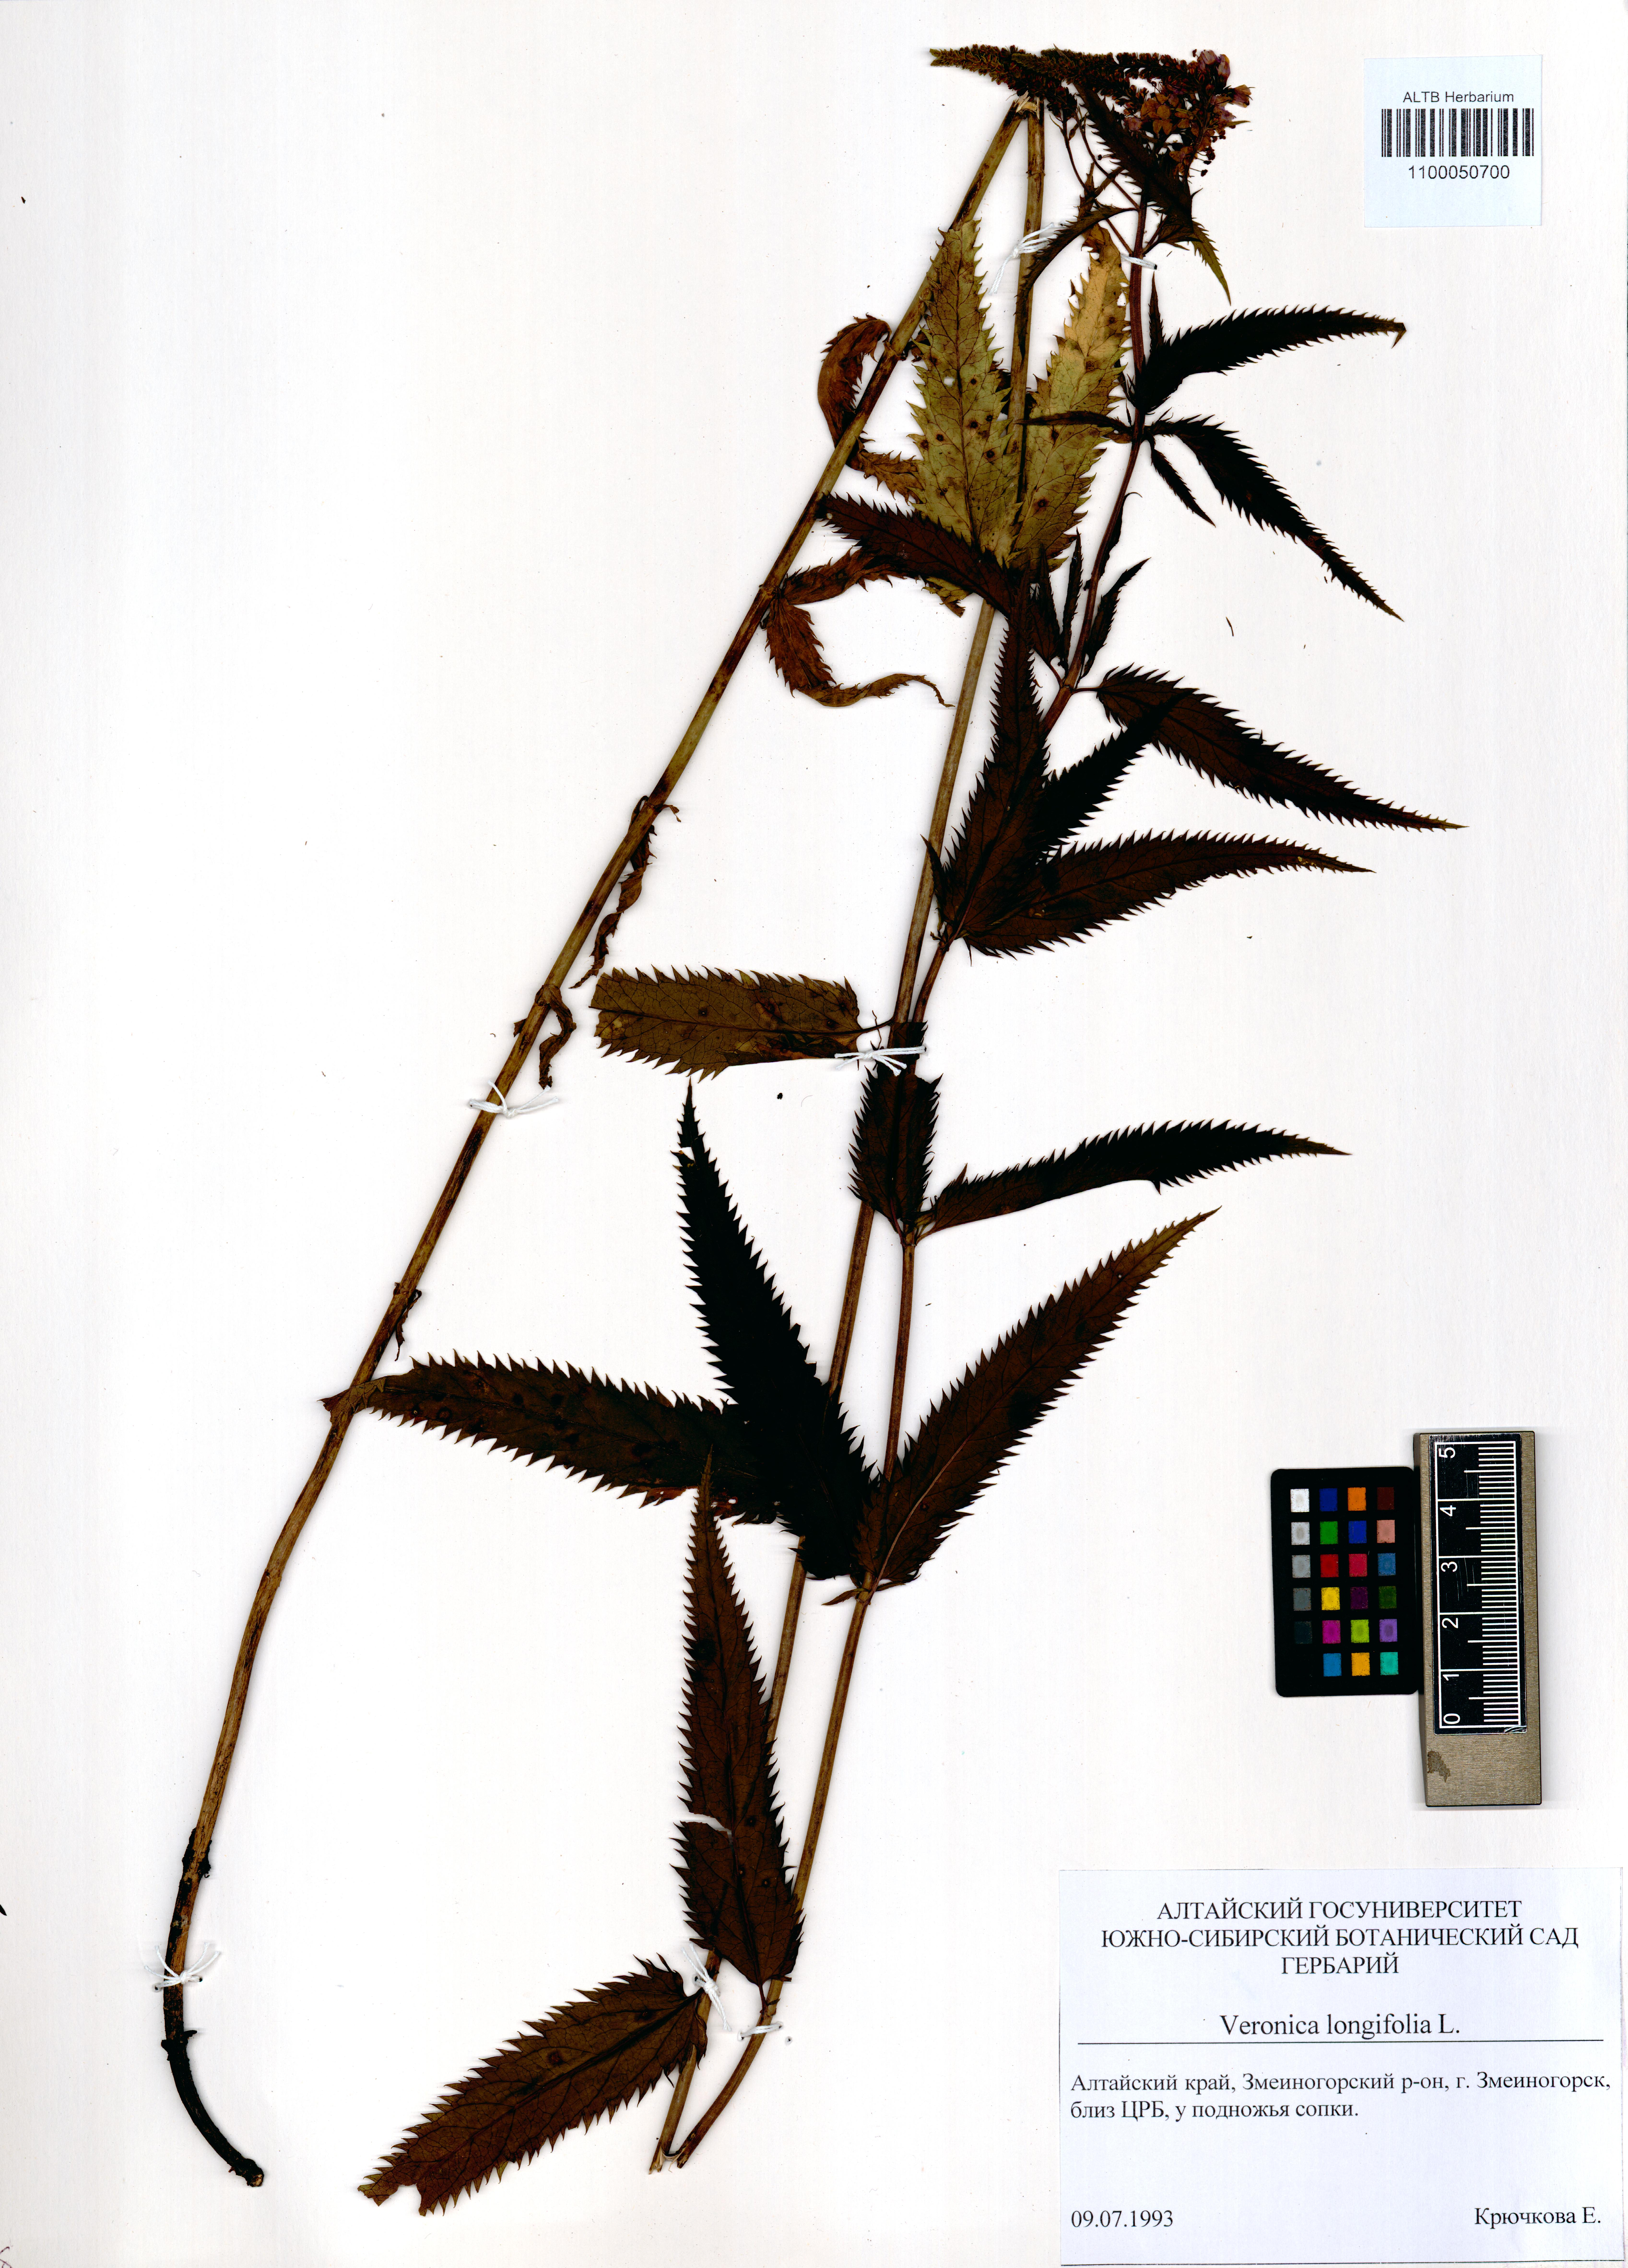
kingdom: Plantae
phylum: Tracheophyta
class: Magnoliopsida
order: Lamiales
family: Plantaginaceae
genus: Veronica
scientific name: Veronica longifolia
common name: Garden speedwell
